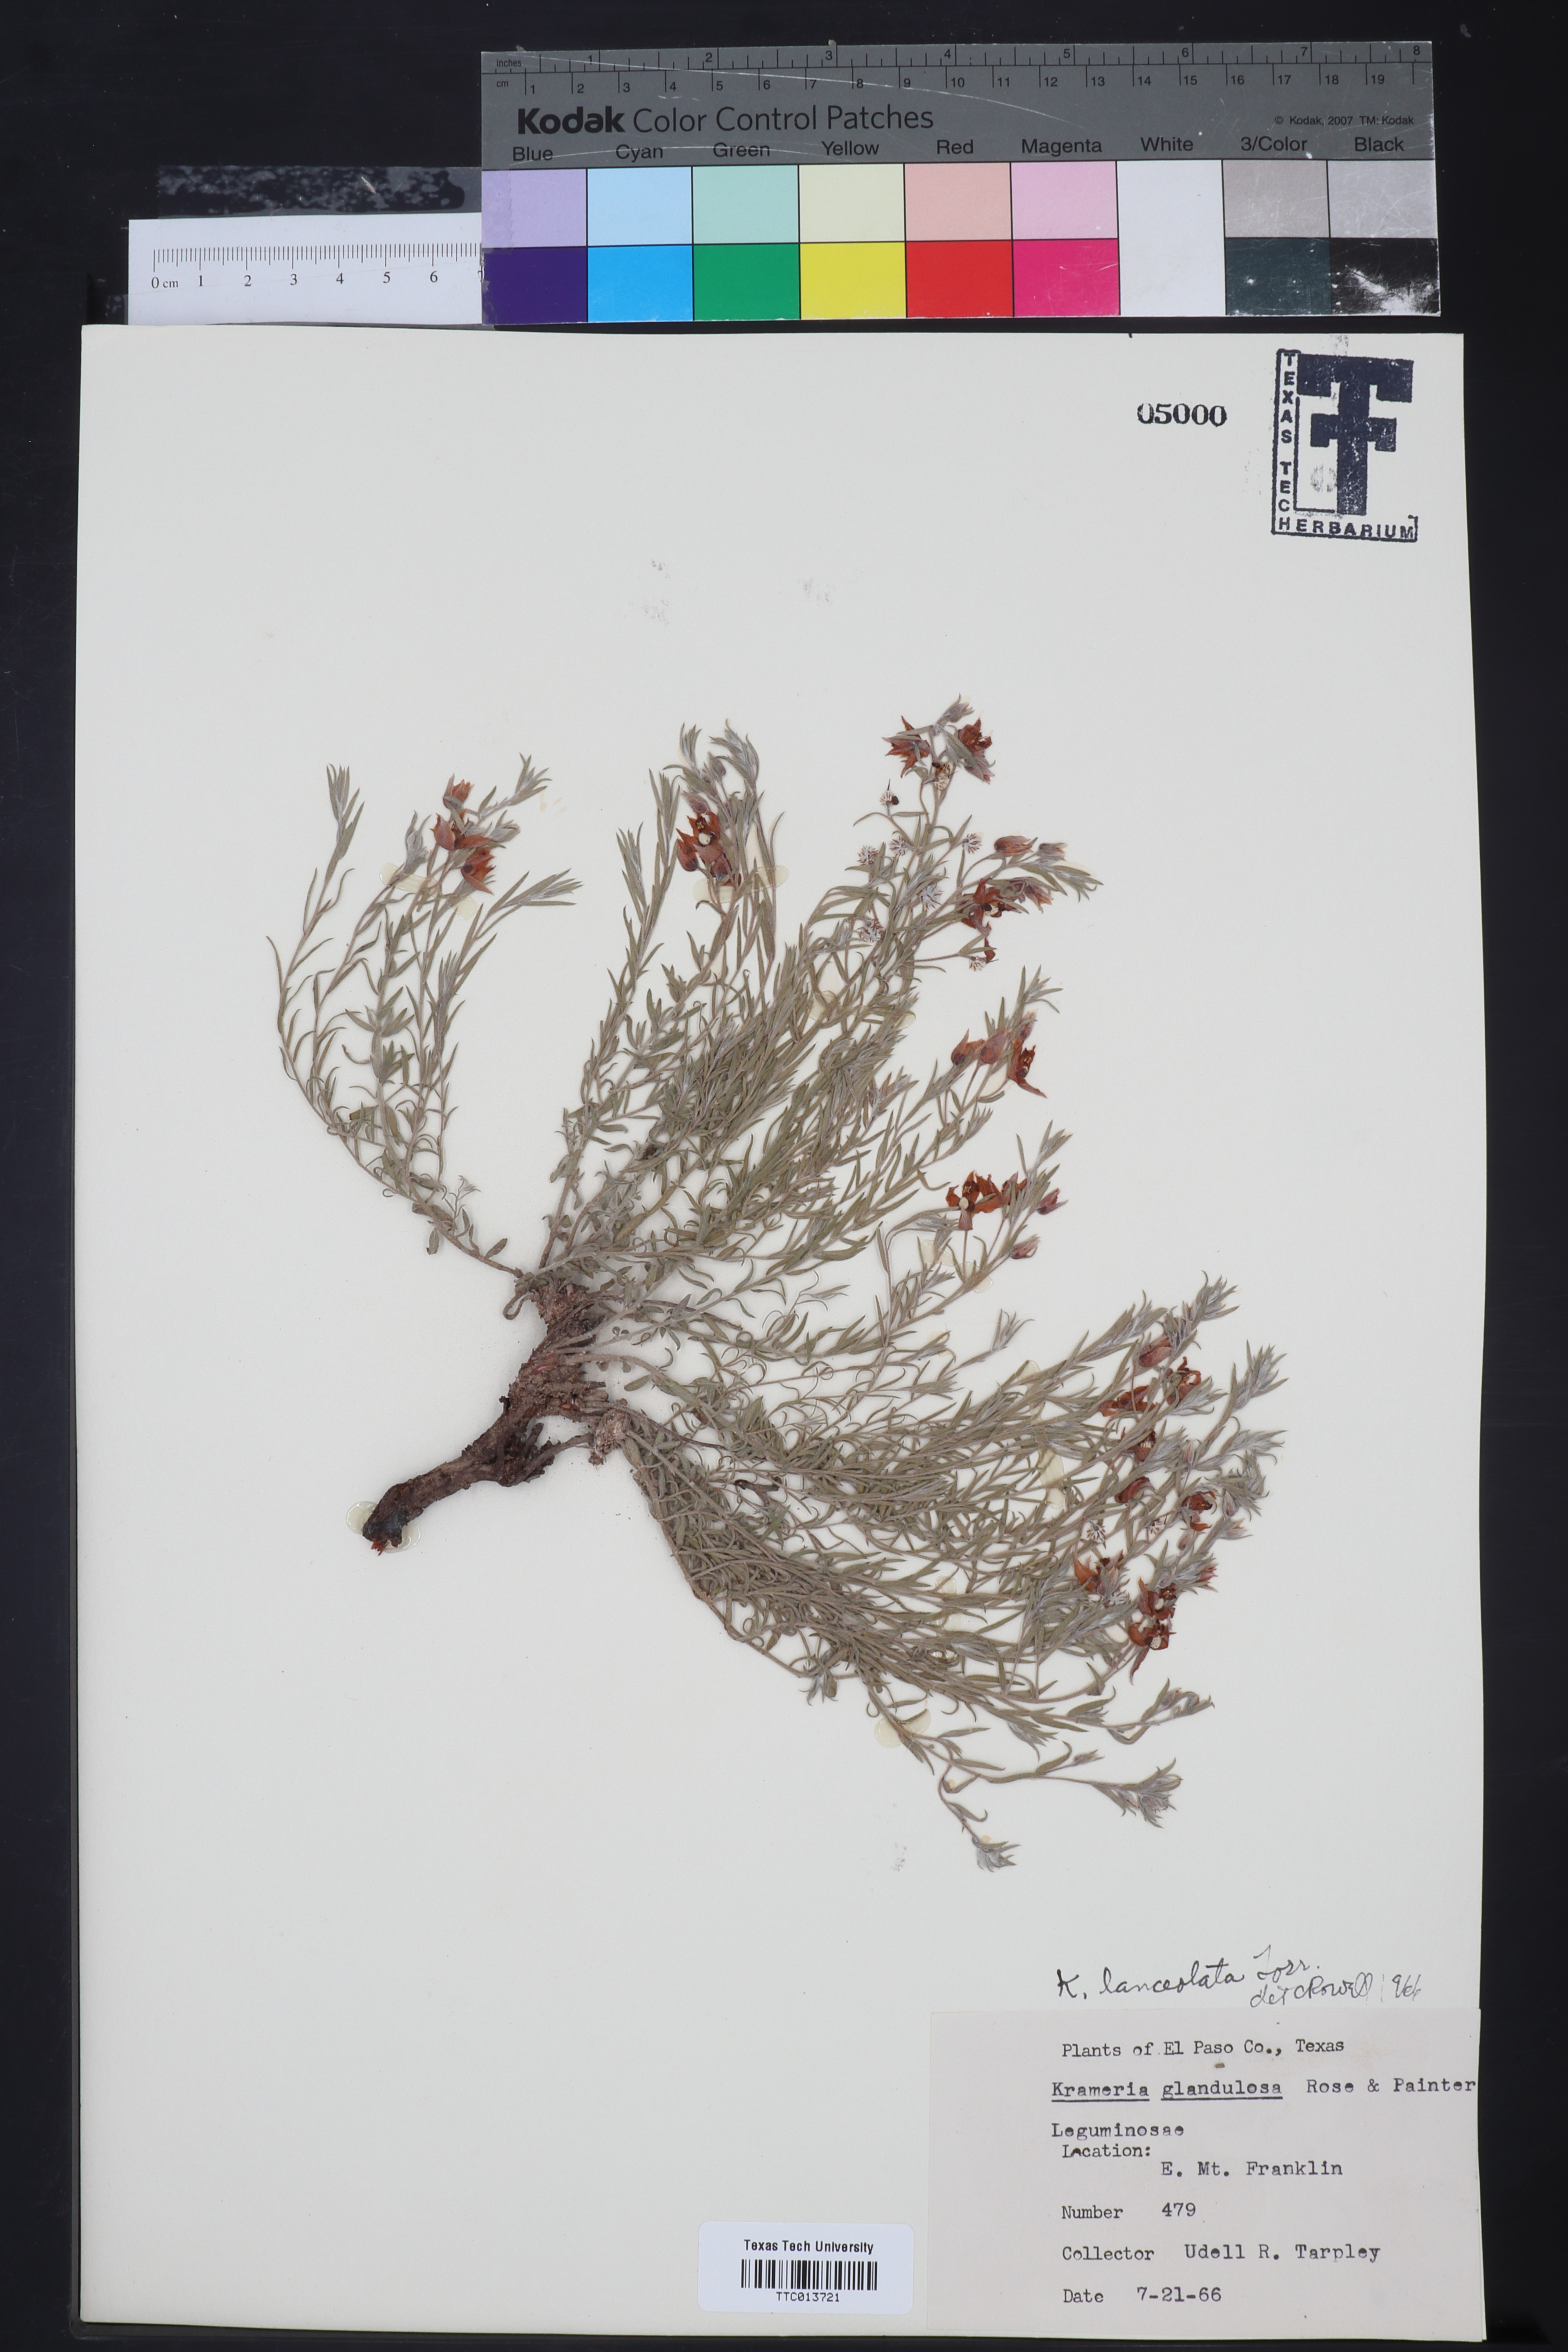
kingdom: Plantae
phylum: Tracheophyta
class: Magnoliopsida
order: Zygophyllales
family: Krameriaceae
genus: Krameria
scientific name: Krameria lanceolata
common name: Ratany
